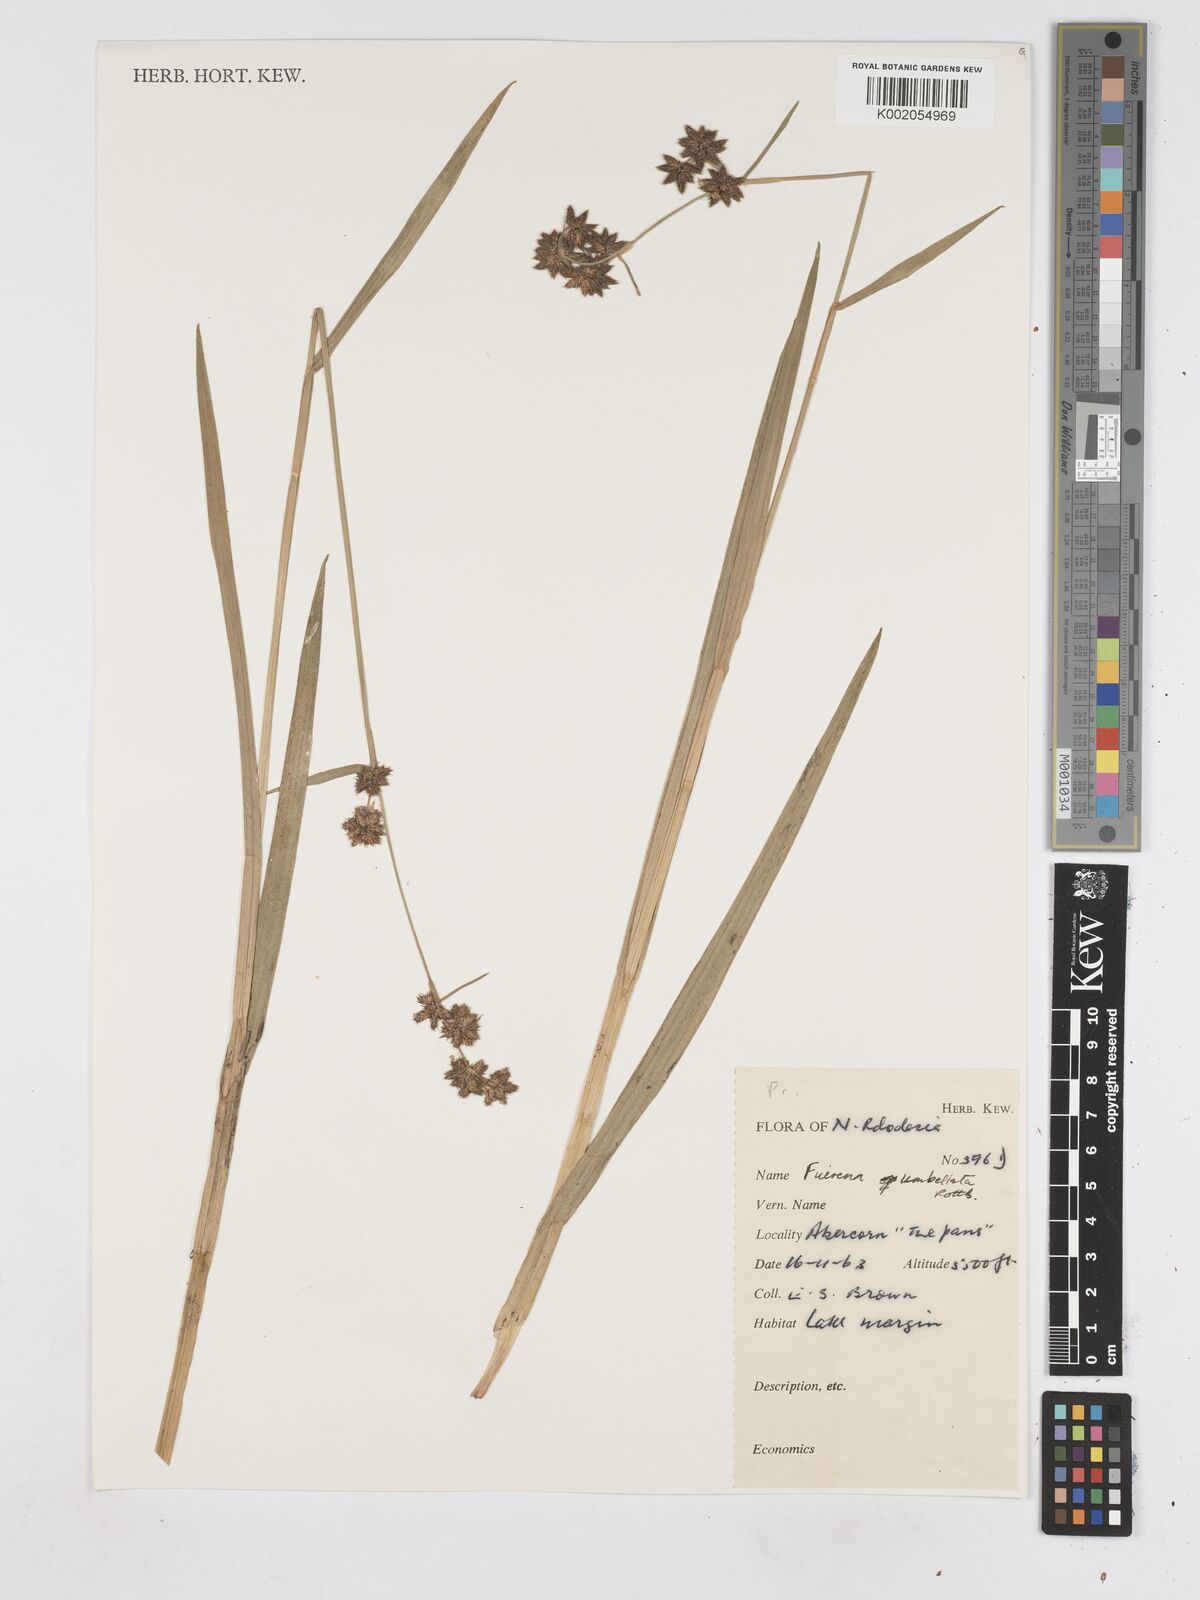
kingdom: Plantae
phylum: Tracheophyta
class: Liliopsida
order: Poales
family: Cyperaceae
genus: Fuirena
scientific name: Fuirena umbellata
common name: Yefen
